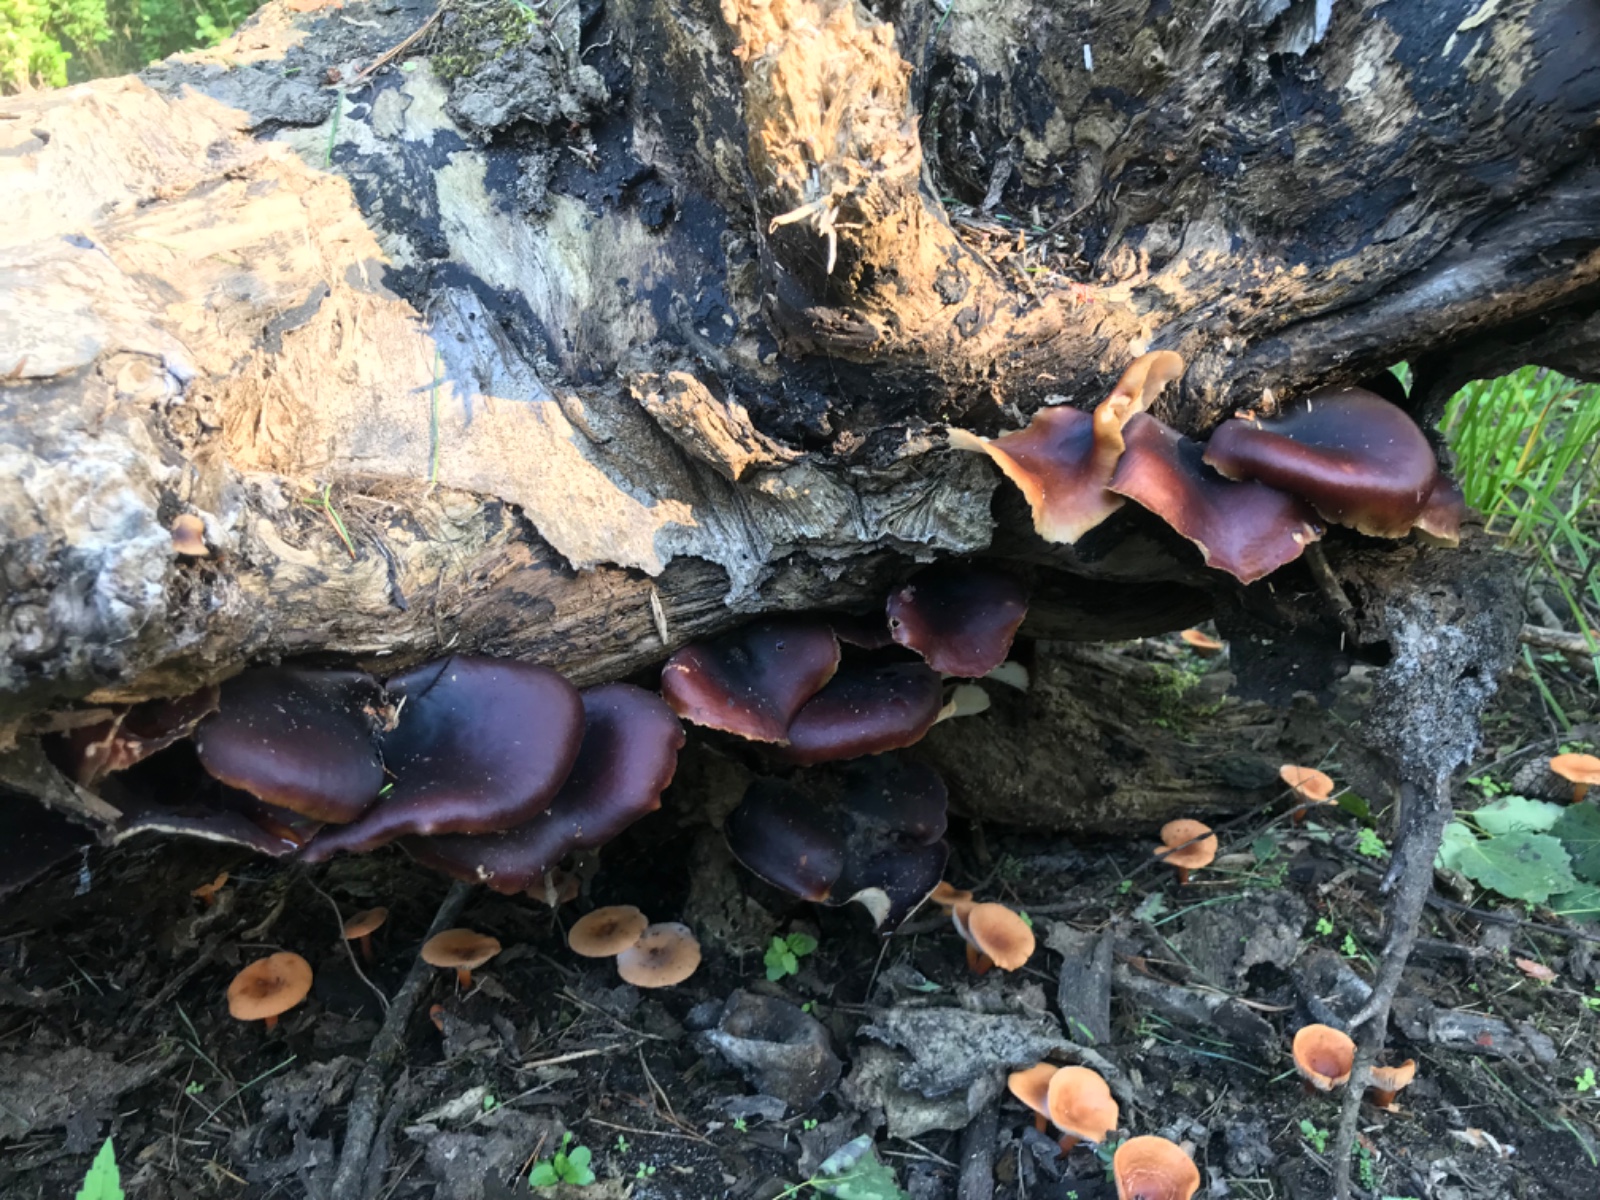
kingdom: Fungi
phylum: Basidiomycota
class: Agaricomycetes
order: Polyporales
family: Polyporaceae
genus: Picipes
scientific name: Picipes badius
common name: kastaniebrun stilkporesvamp
